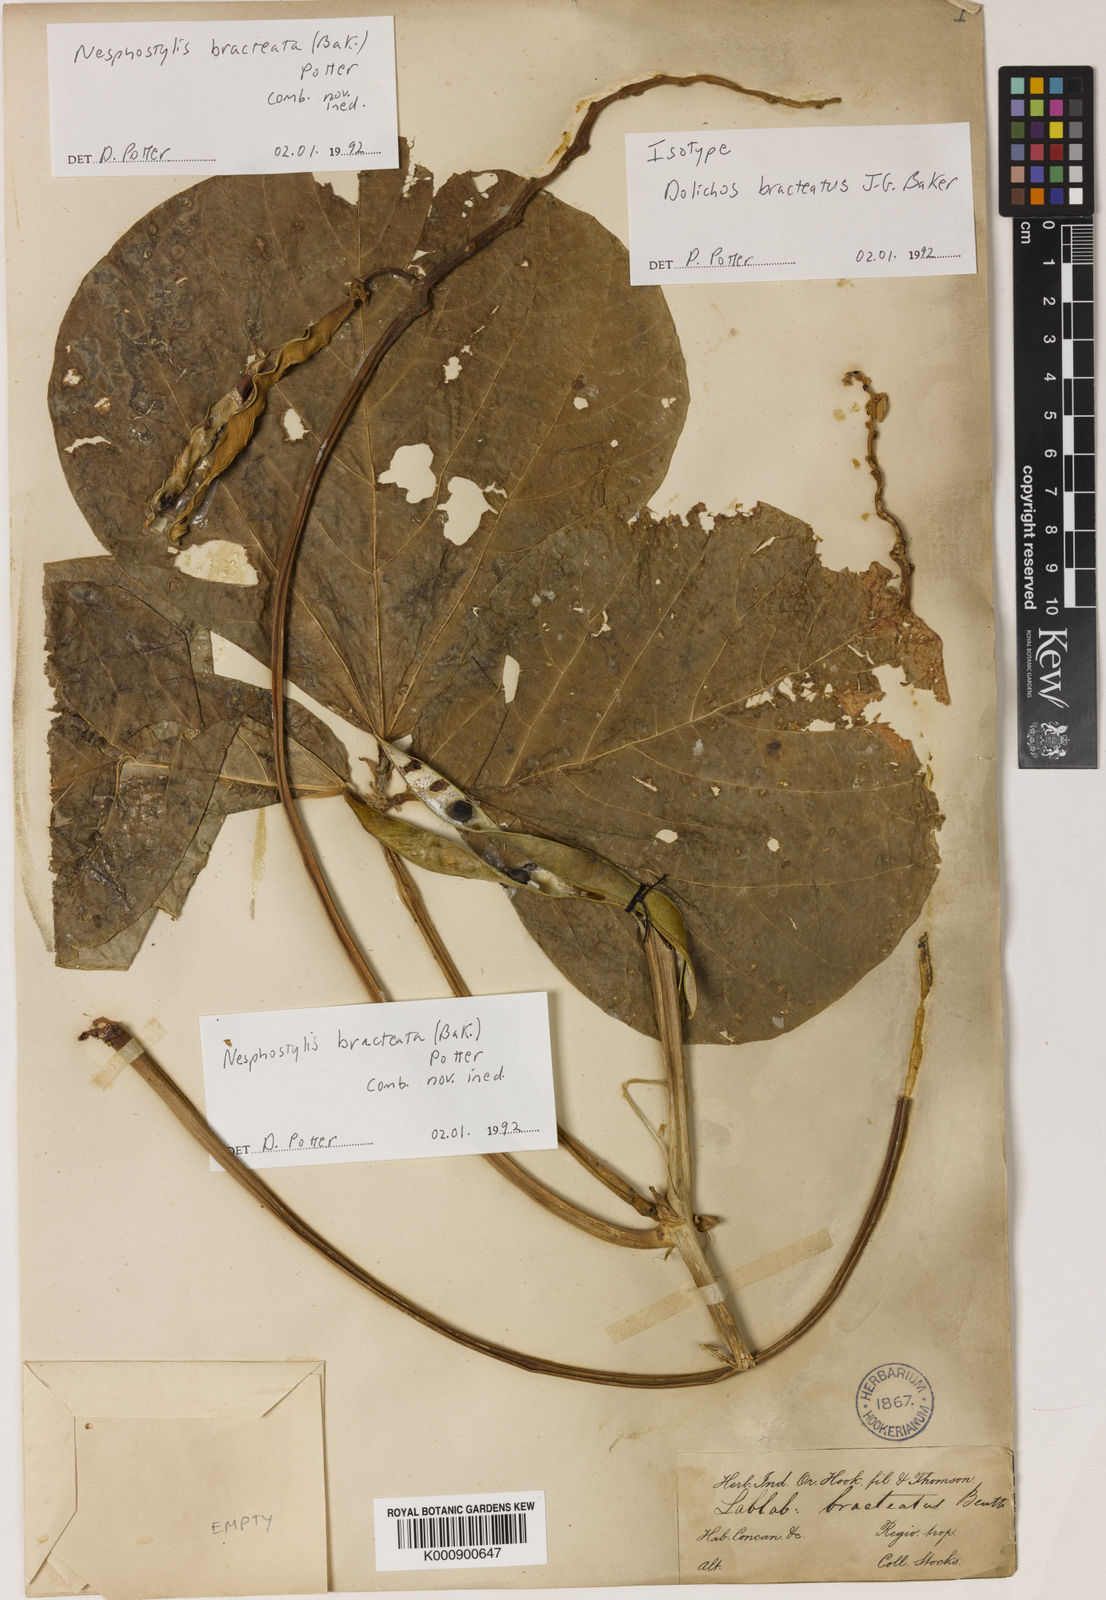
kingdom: Plantae
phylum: Tracheophyta
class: Magnoliopsida
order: Fabales
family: Fabaceae
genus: Lablab
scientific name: Lablab purpureus
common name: Lablab-bean
